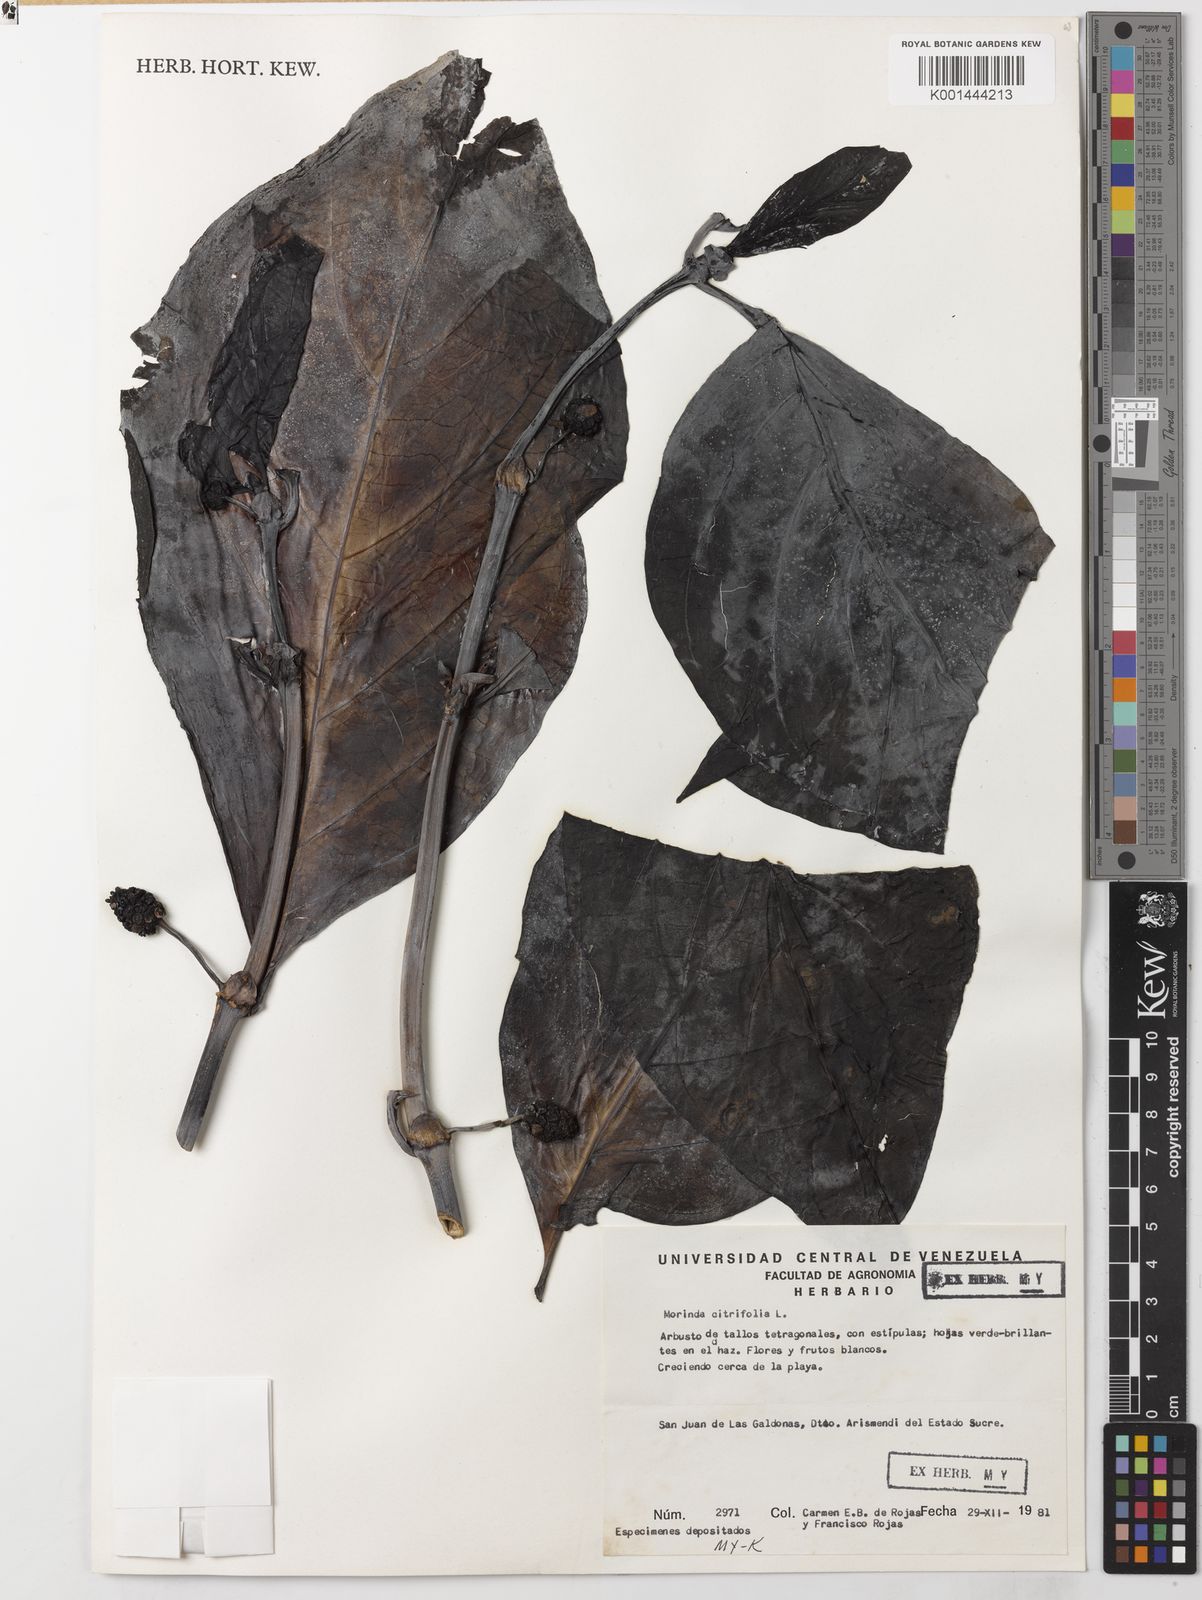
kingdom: Plantae
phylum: Tracheophyta
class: Magnoliopsida
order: Gentianales
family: Rubiaceae
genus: Morinda
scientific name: Morinda citrifolia
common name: Indian-mulberry
